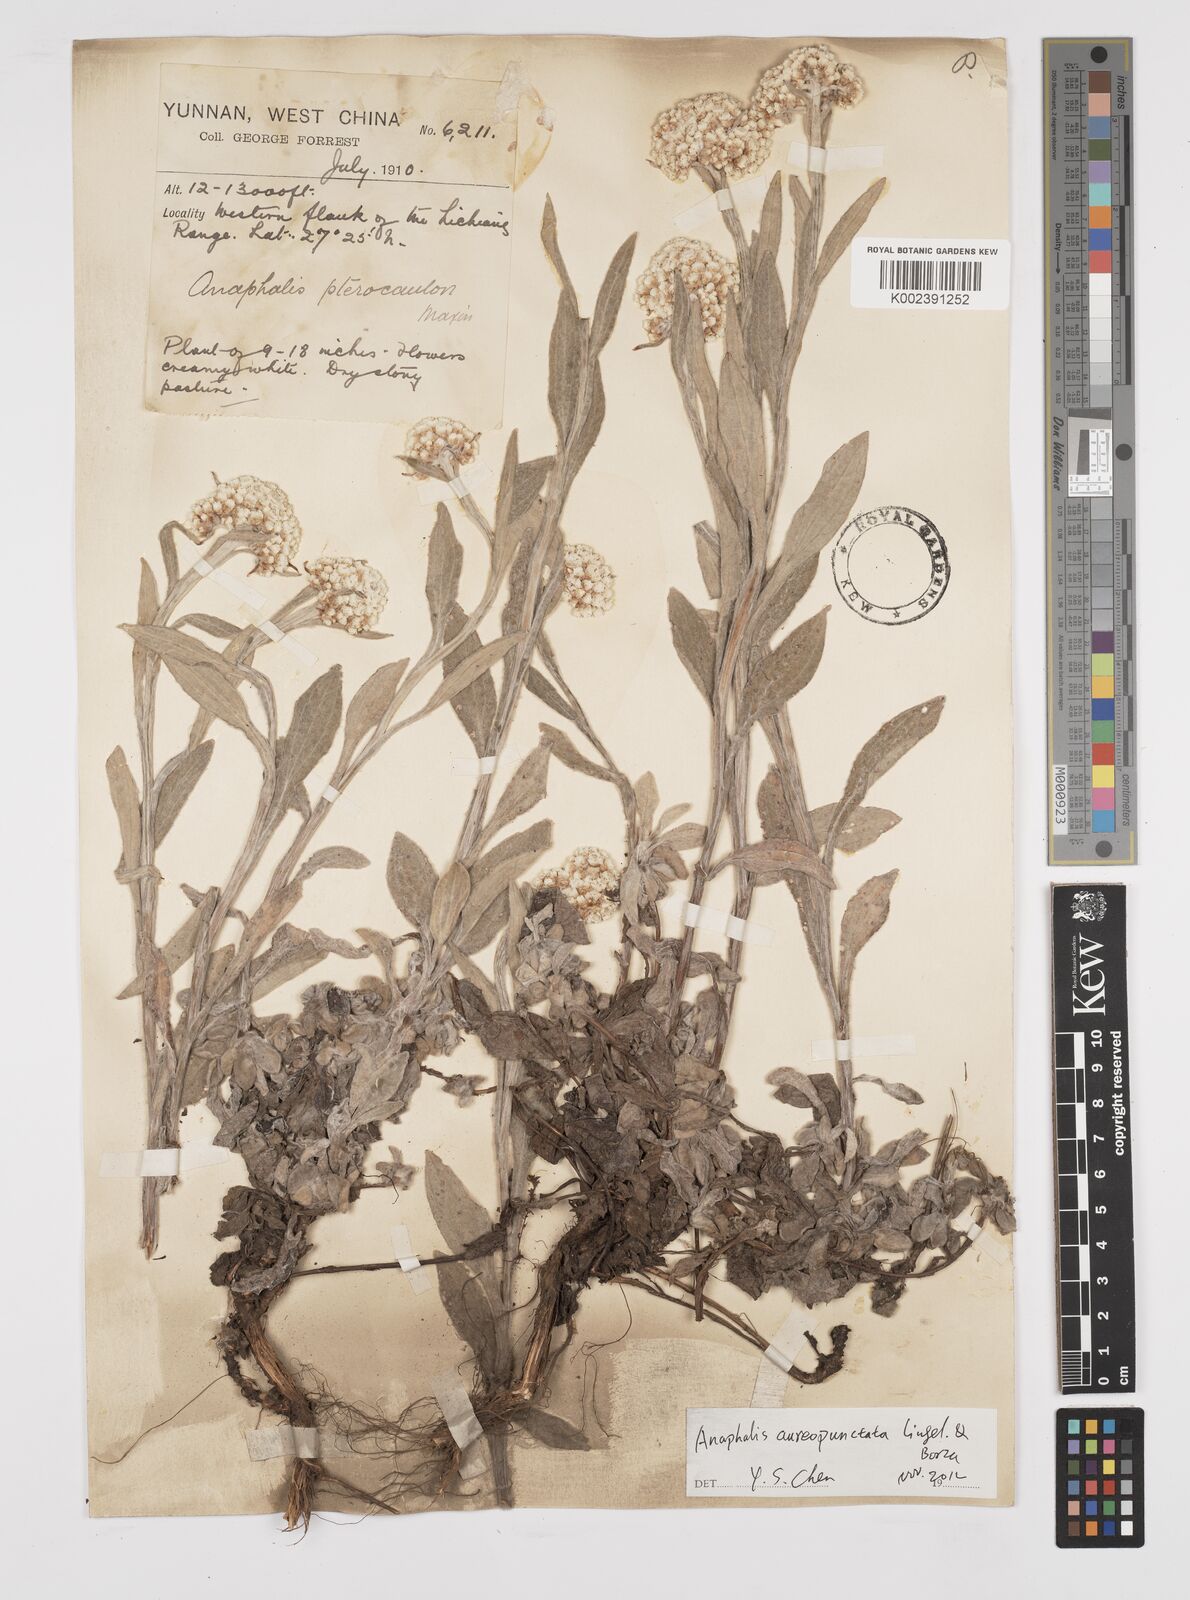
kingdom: Plantae
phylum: Tracheophyta
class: Magnoliopsida
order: Asterales
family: Asteraceae
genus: Anaphalis
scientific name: Anaphalis sinica
